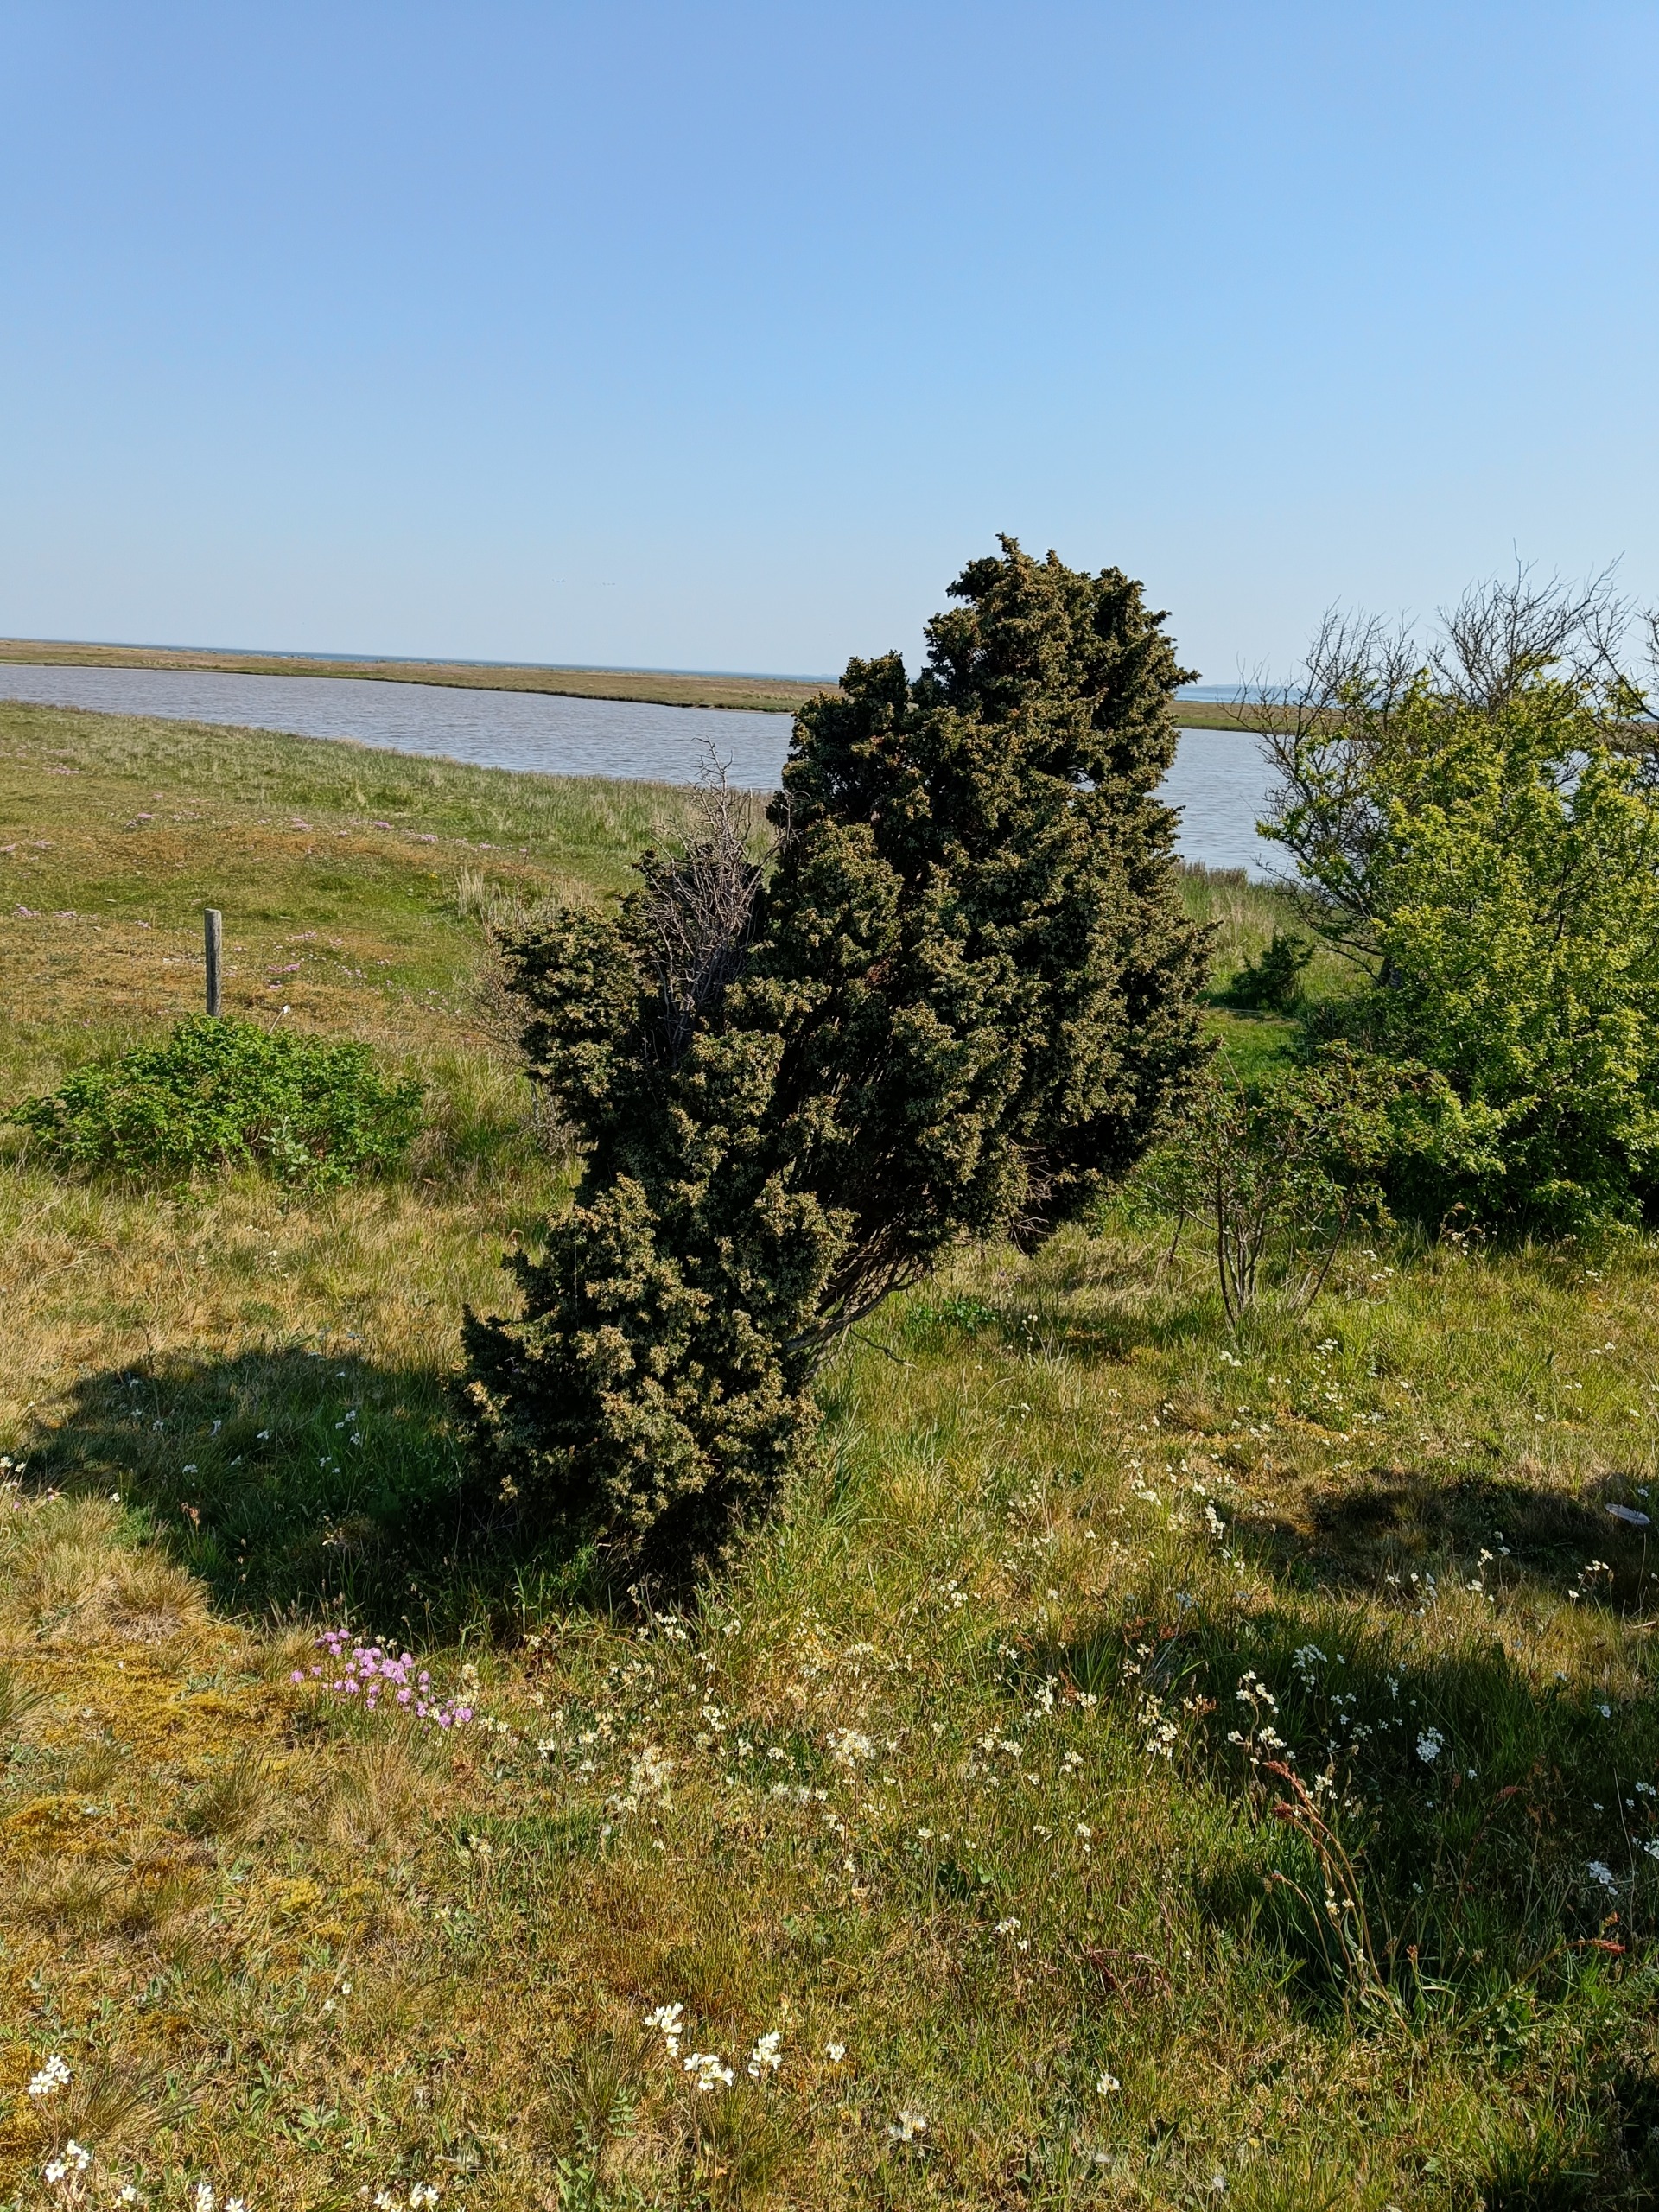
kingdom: Plantae
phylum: Tracheophyta
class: Pinopsida
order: Pinales
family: Cupressaceae
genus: Juniperus
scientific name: Juniperus communis
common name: Almindelig ene
